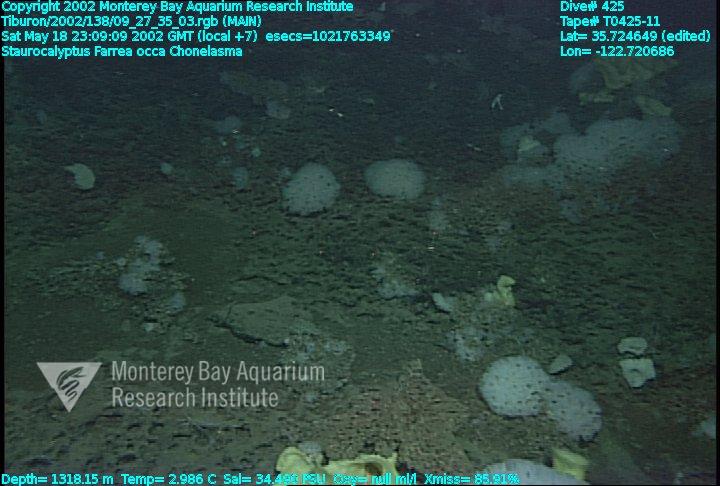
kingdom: Animalia
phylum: Porifera
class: Hexactinellida
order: Sceptrulophora
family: Euretidae
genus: Chonelasma
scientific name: Chonelasma
